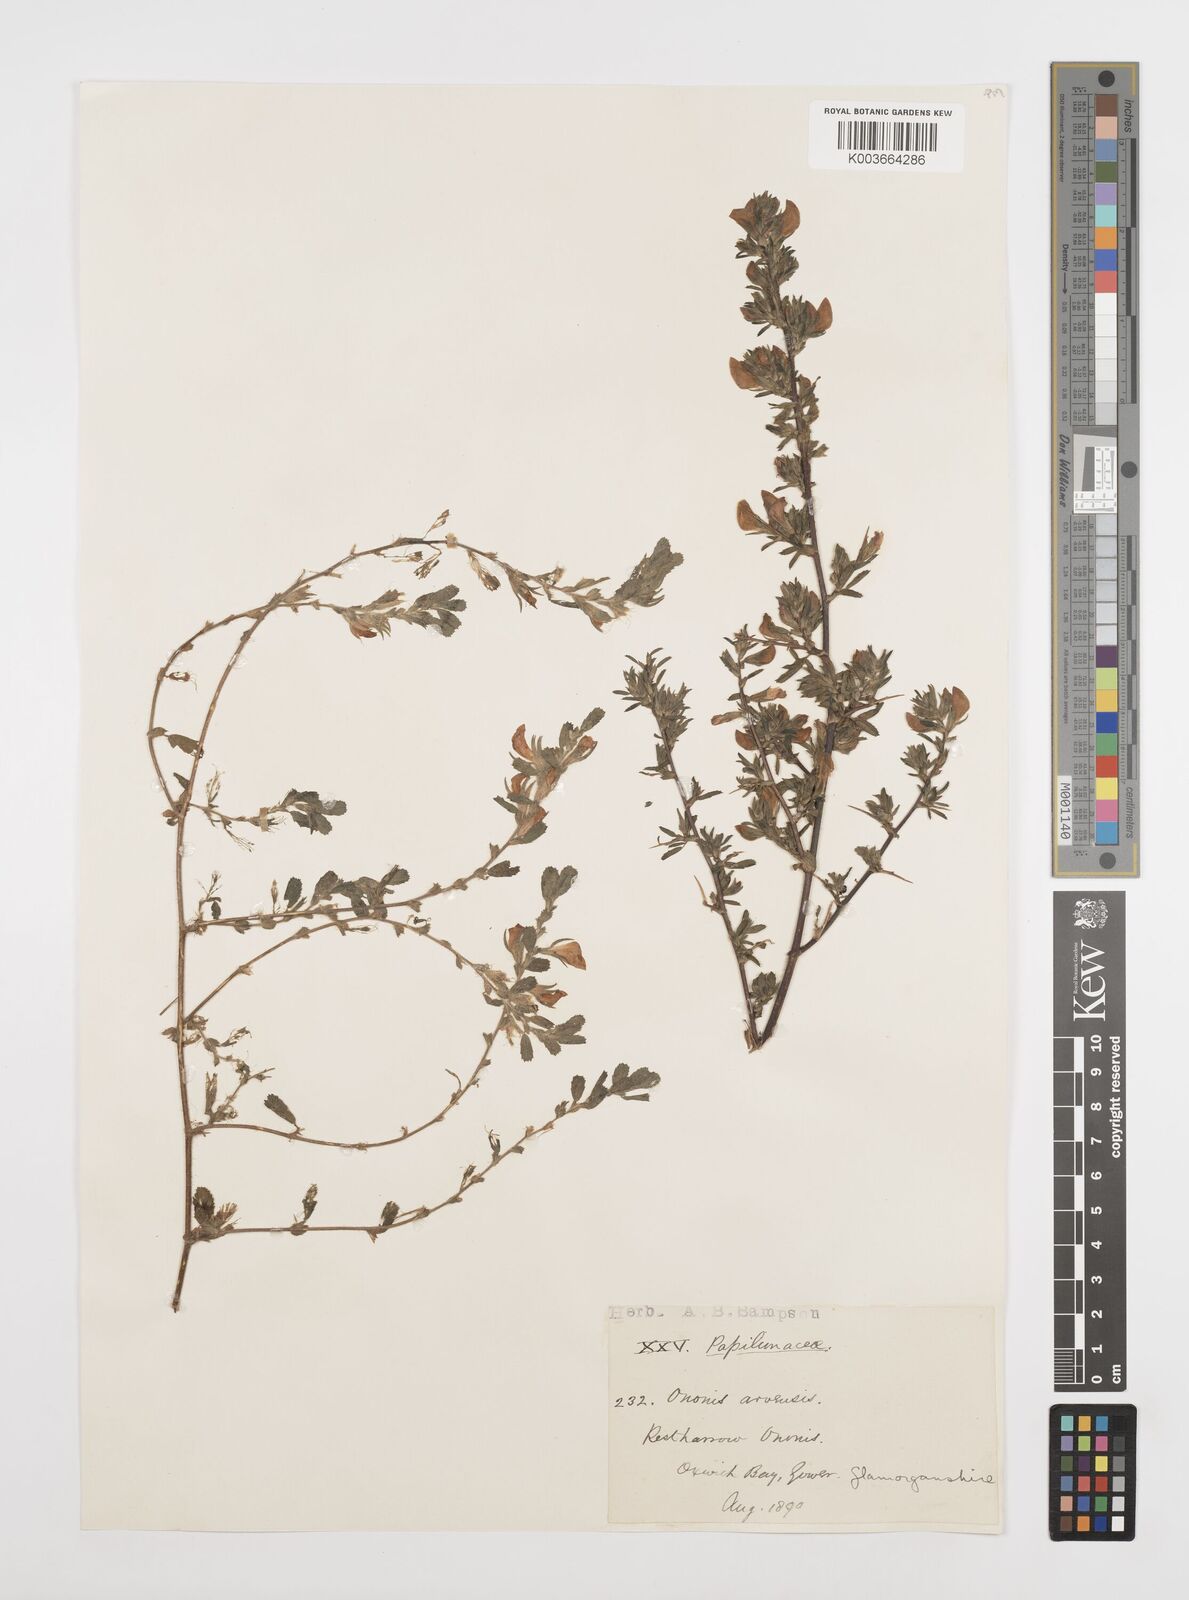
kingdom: Plantae
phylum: Tracheophyta
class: Magnoliopsida
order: Fabales
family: Fabaceae
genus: Ononis
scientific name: Ononis spinosa
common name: Spiny restharrow
